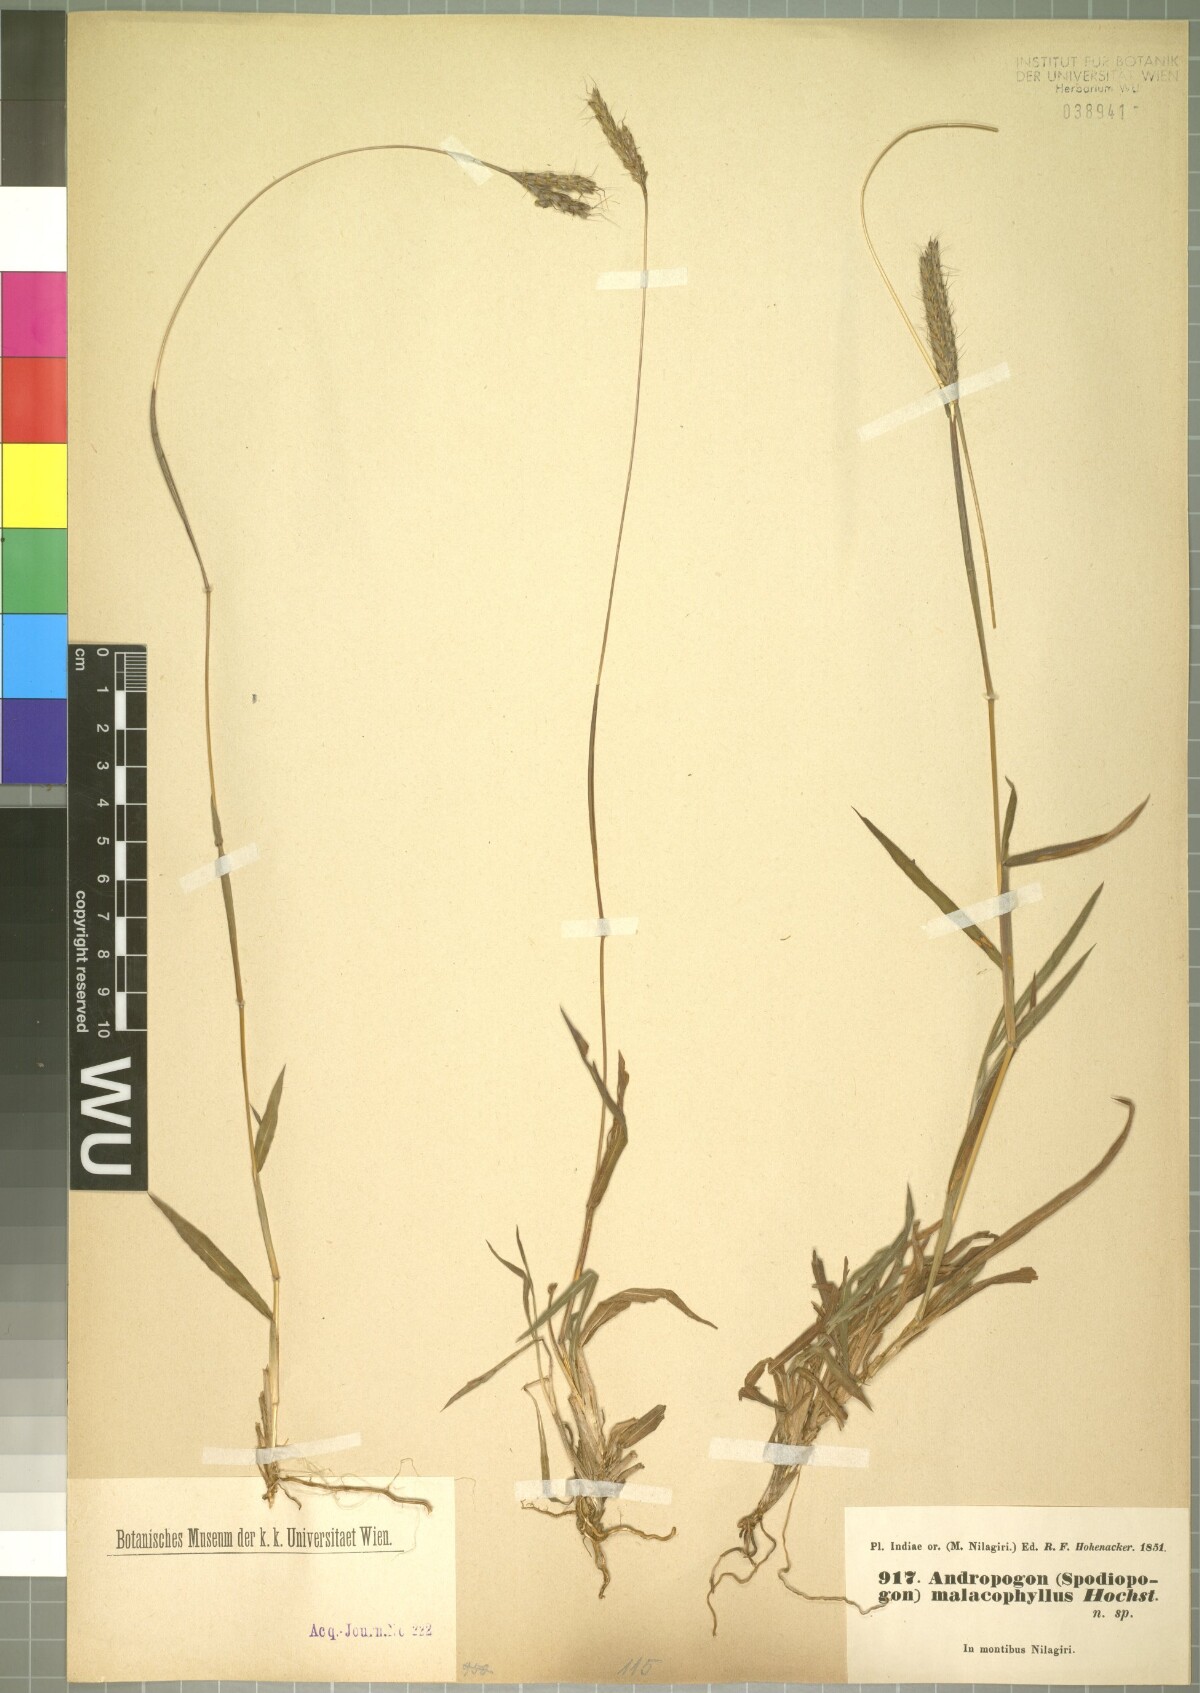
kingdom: Plantae
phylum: Tracheophyta
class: Liliopsida
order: Poales
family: Poaceae
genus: Ischaemum
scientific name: Ischaemum ciliare
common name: Grass
